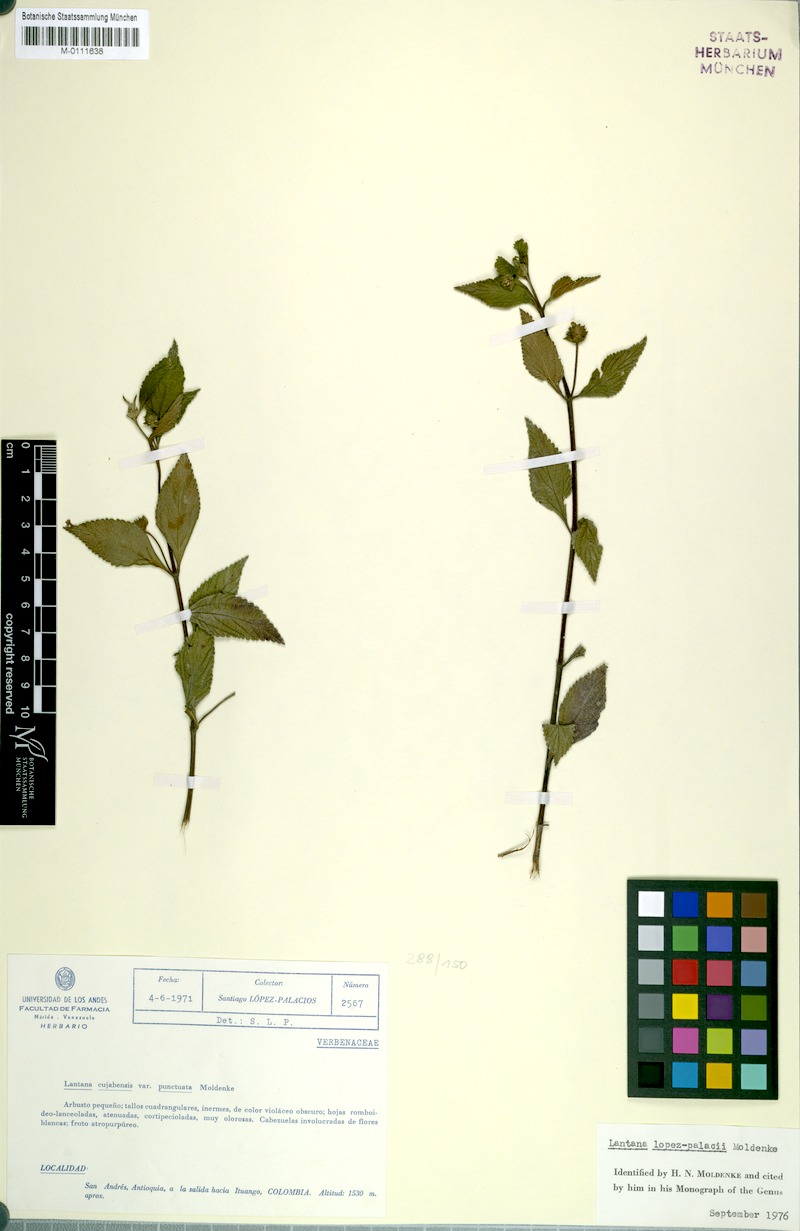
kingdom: Plantae
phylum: Tracheophyta
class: Magnoliopsida
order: Lamiales
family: Verbenaceae
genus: Lantana
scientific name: Lantana lopez-palacii
